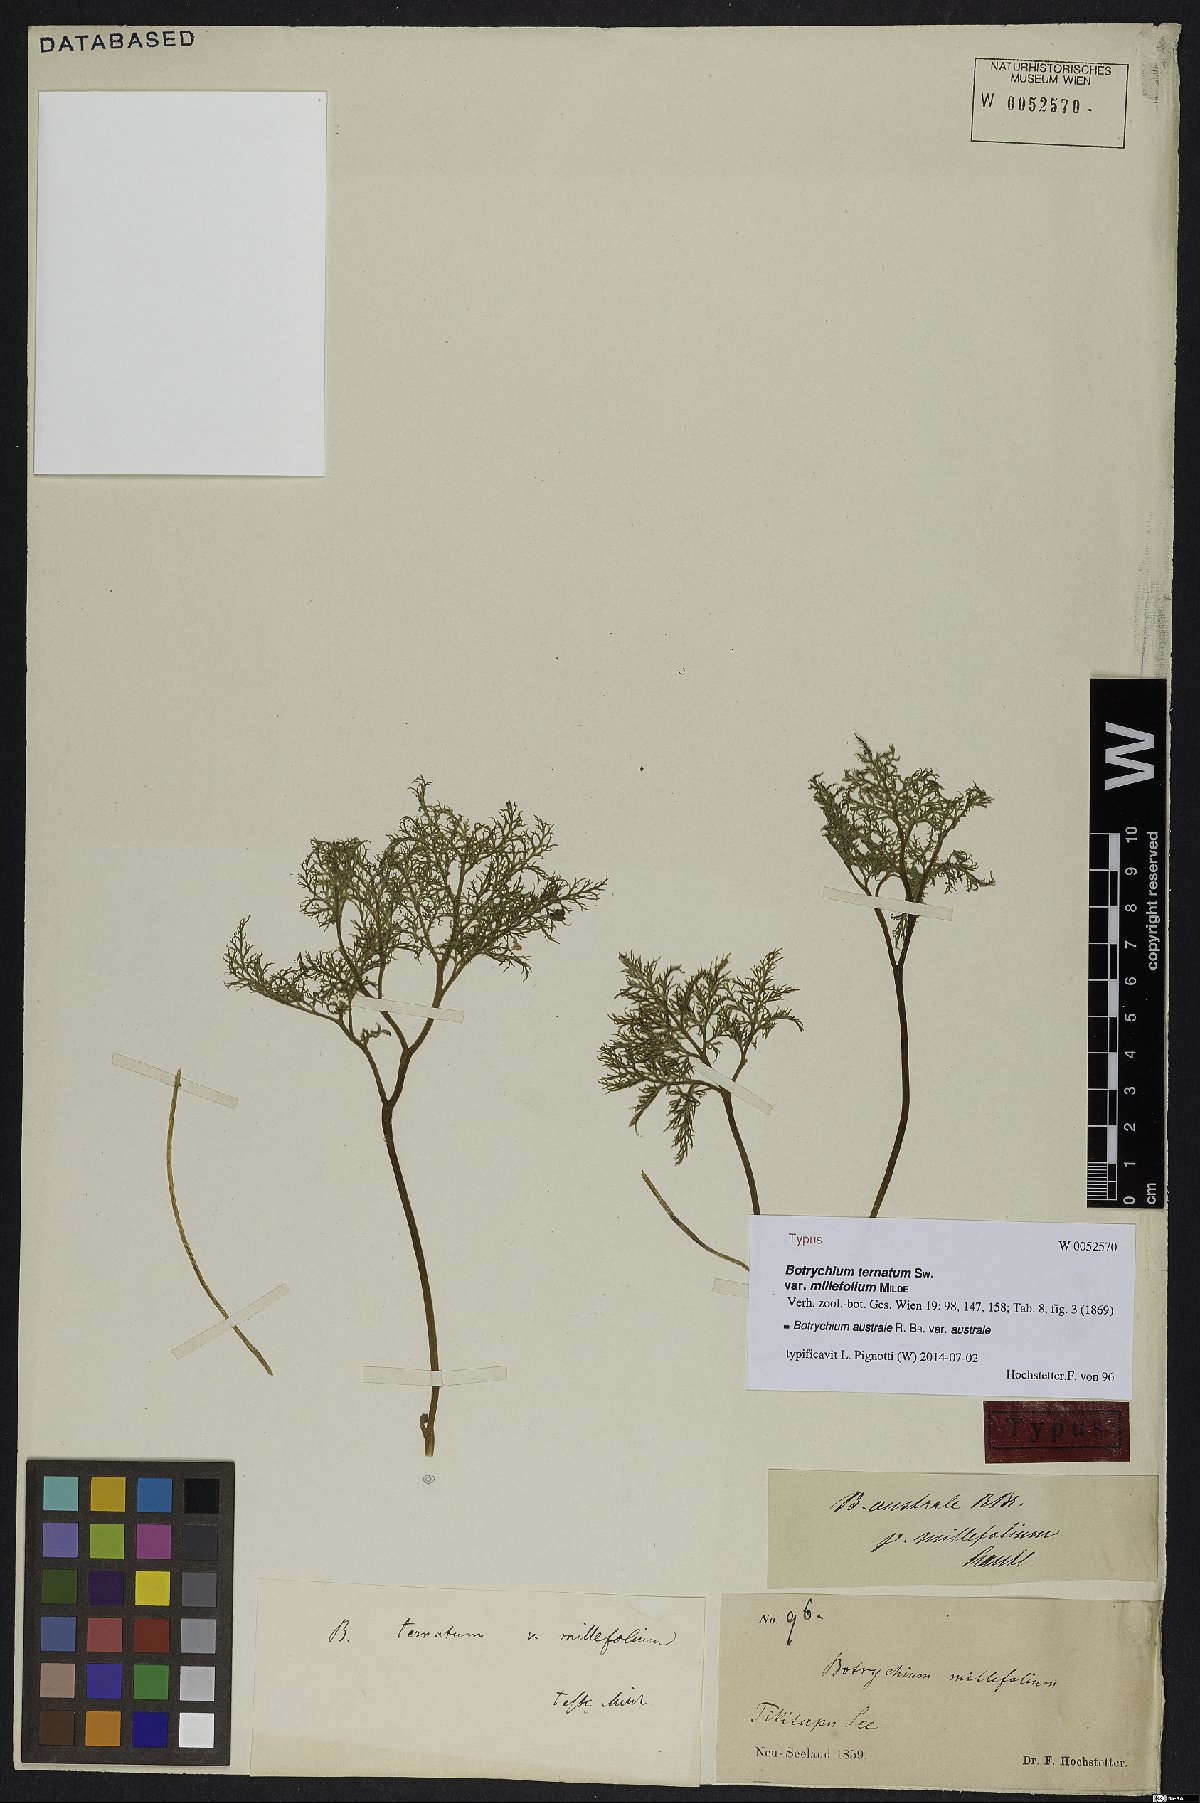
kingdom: Plantae
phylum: Tracheophyta
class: Polypodiopsida
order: Ophioglossales
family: Ophioglossaceae
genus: Sceptridium
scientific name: Sceptridium australe
